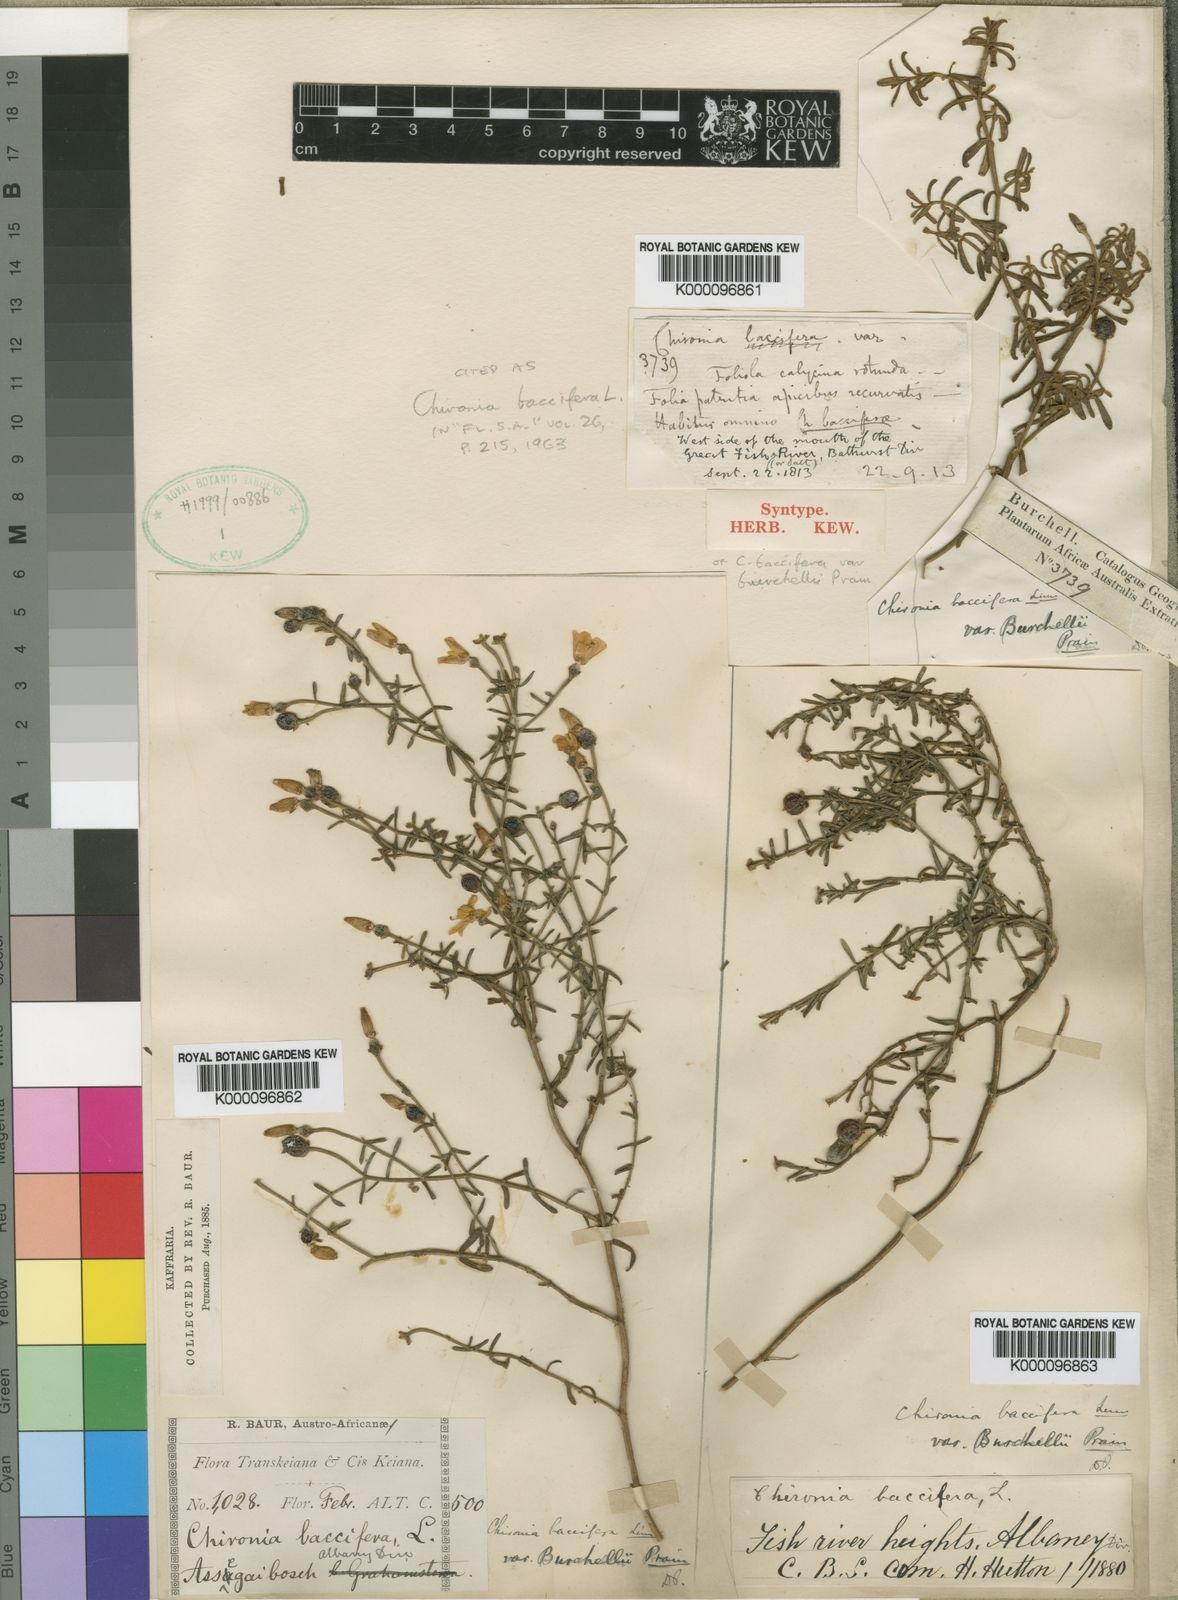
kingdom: Plantae
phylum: Tracheophyta
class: Magnoliopsida
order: Gentianales
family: Gentianaceae
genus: Chironia
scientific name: Chironia baccifera
